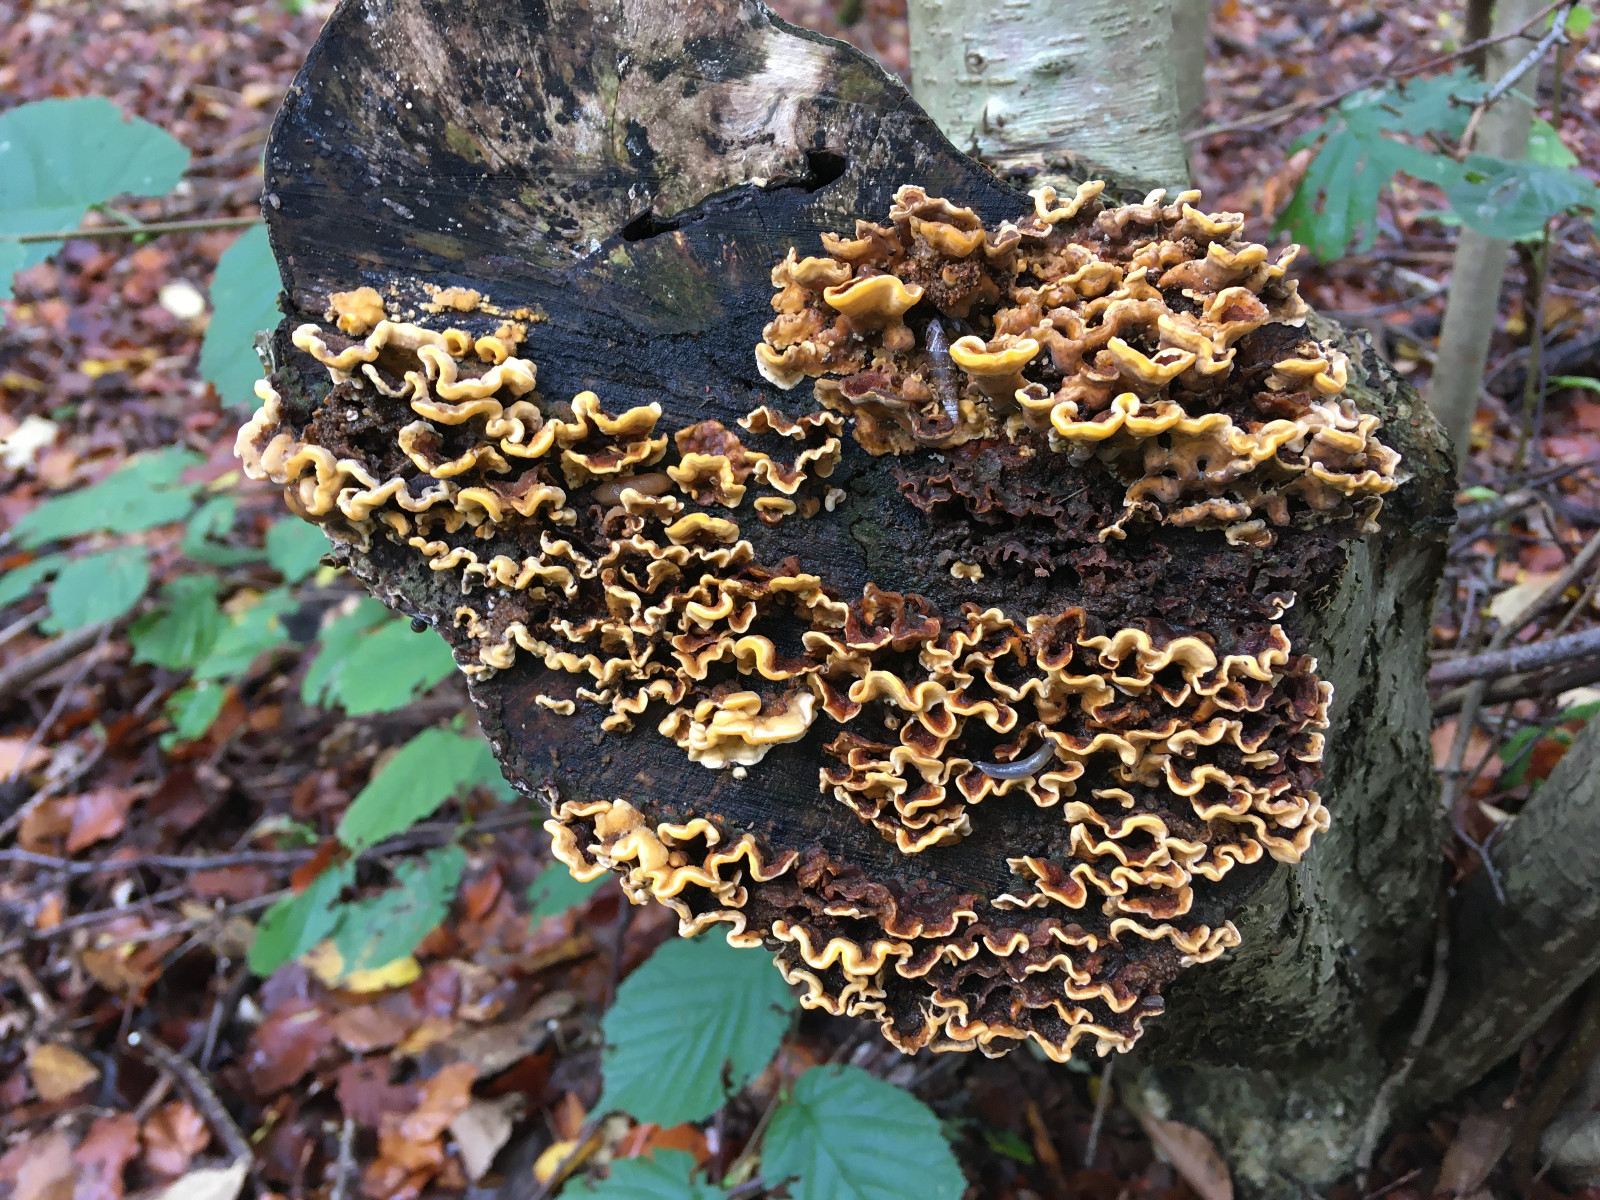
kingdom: Fungi
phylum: Basidiomycota
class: Agaricomycetes
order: Russulales
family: Stereaceae
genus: Stereum
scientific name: Stereum hirsutum
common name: håret lædersvamp
